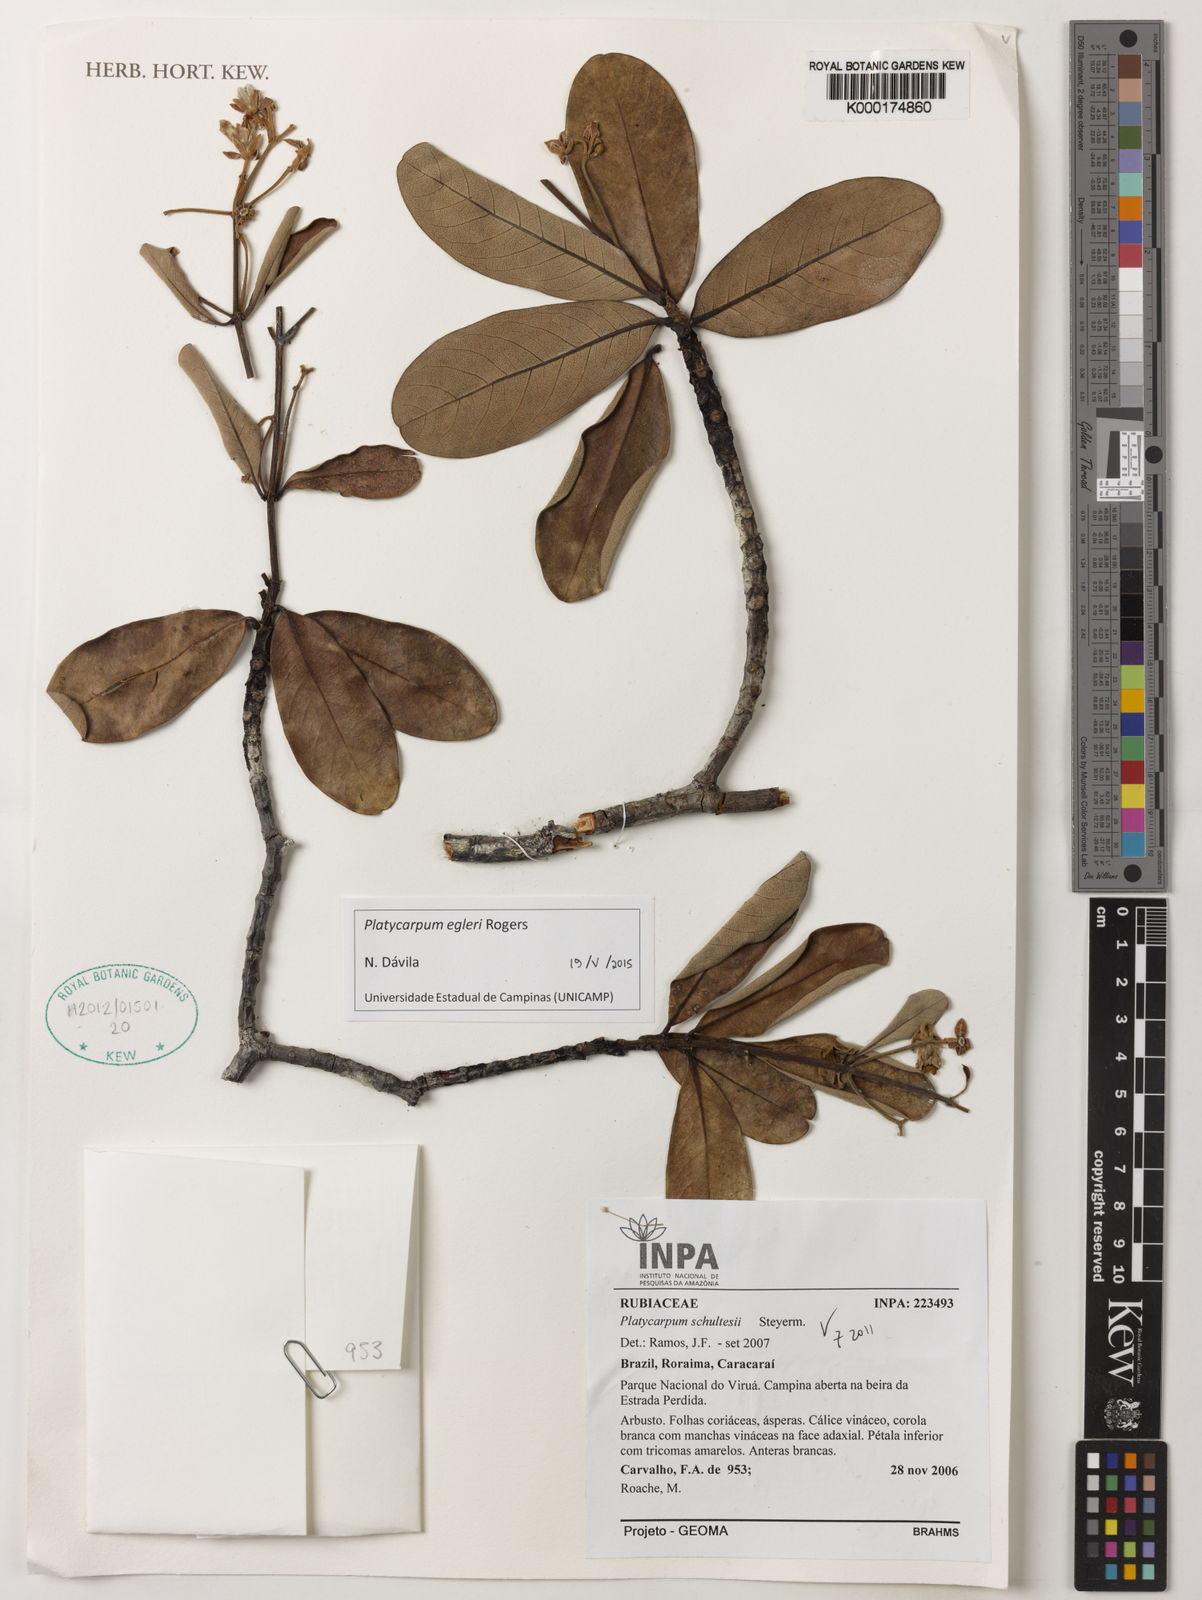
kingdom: Plantae
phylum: Tracheophyta
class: Magnoliopsida
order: Gentianales
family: Rubiaceae
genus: Platycarpum
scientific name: Platycarpum schultesii
